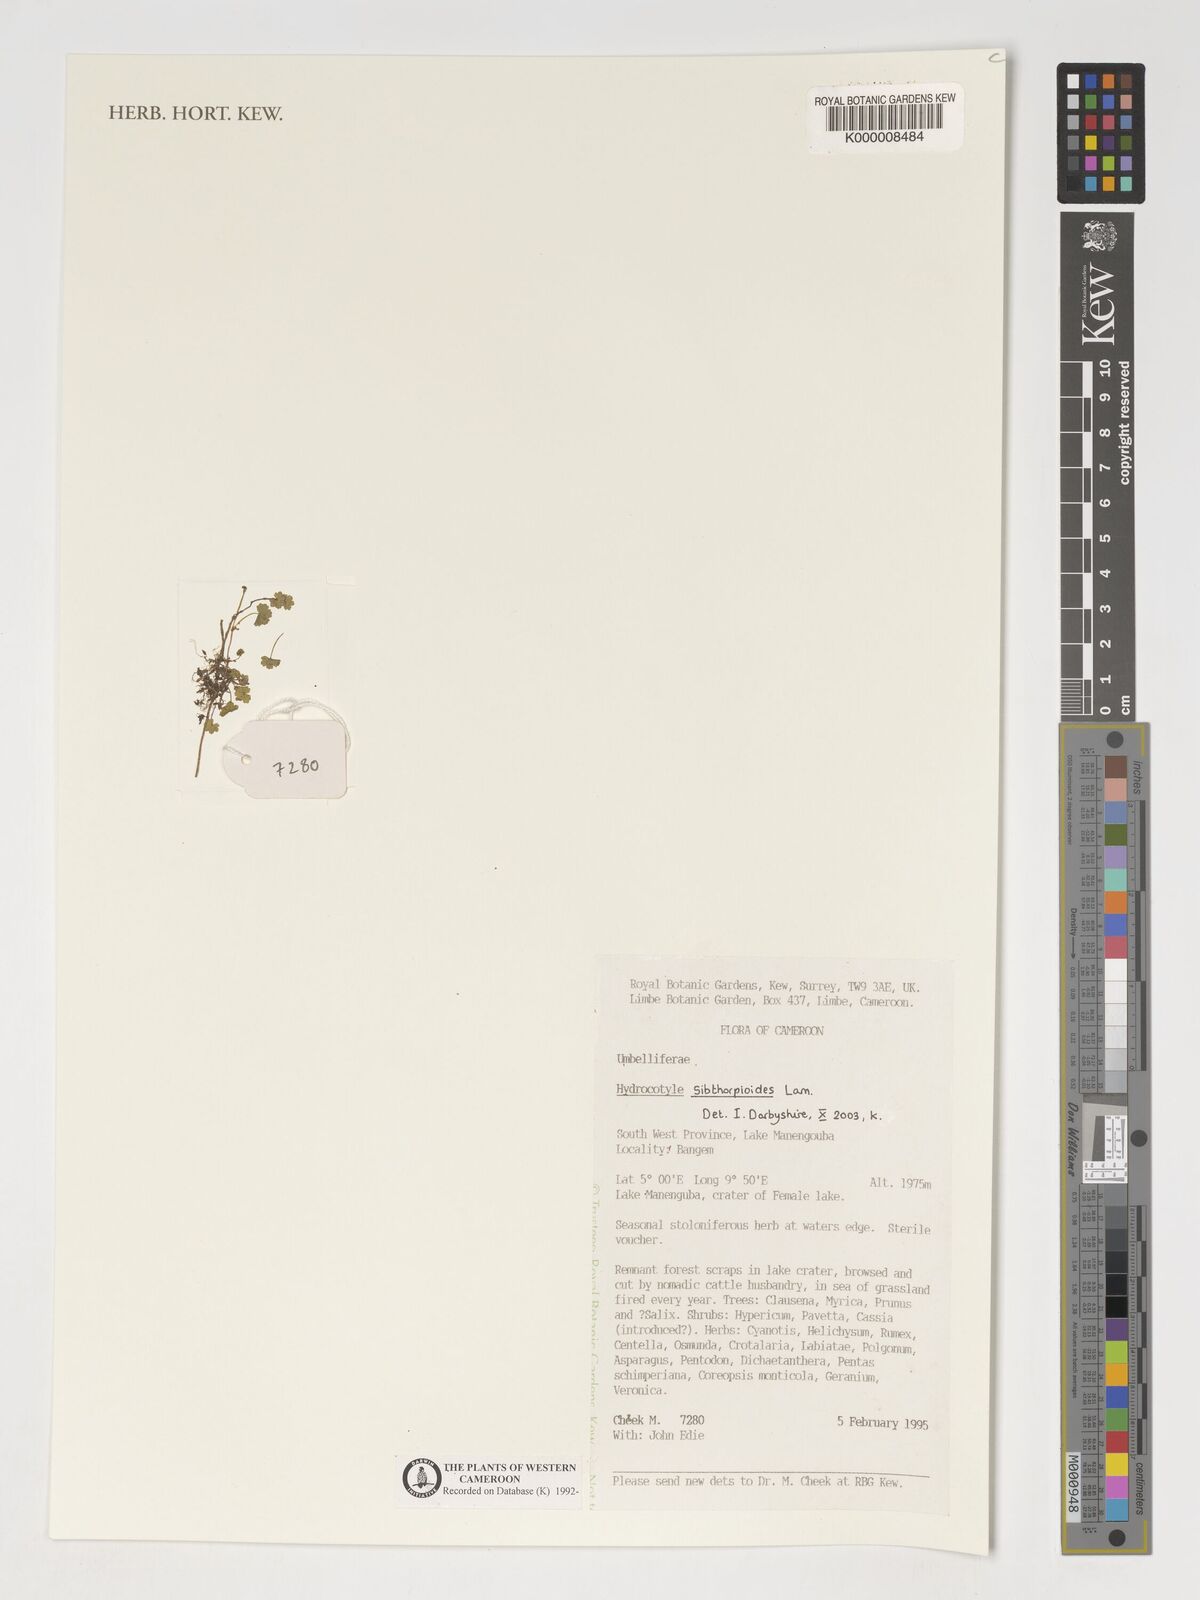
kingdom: Plantae
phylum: Tracheophyta
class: Magnoliopsida
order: Apiales
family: Araliaceae
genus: Hydrocotyle
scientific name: Hydrocotyle sibthorpioides
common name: Lawn marshpennywort
